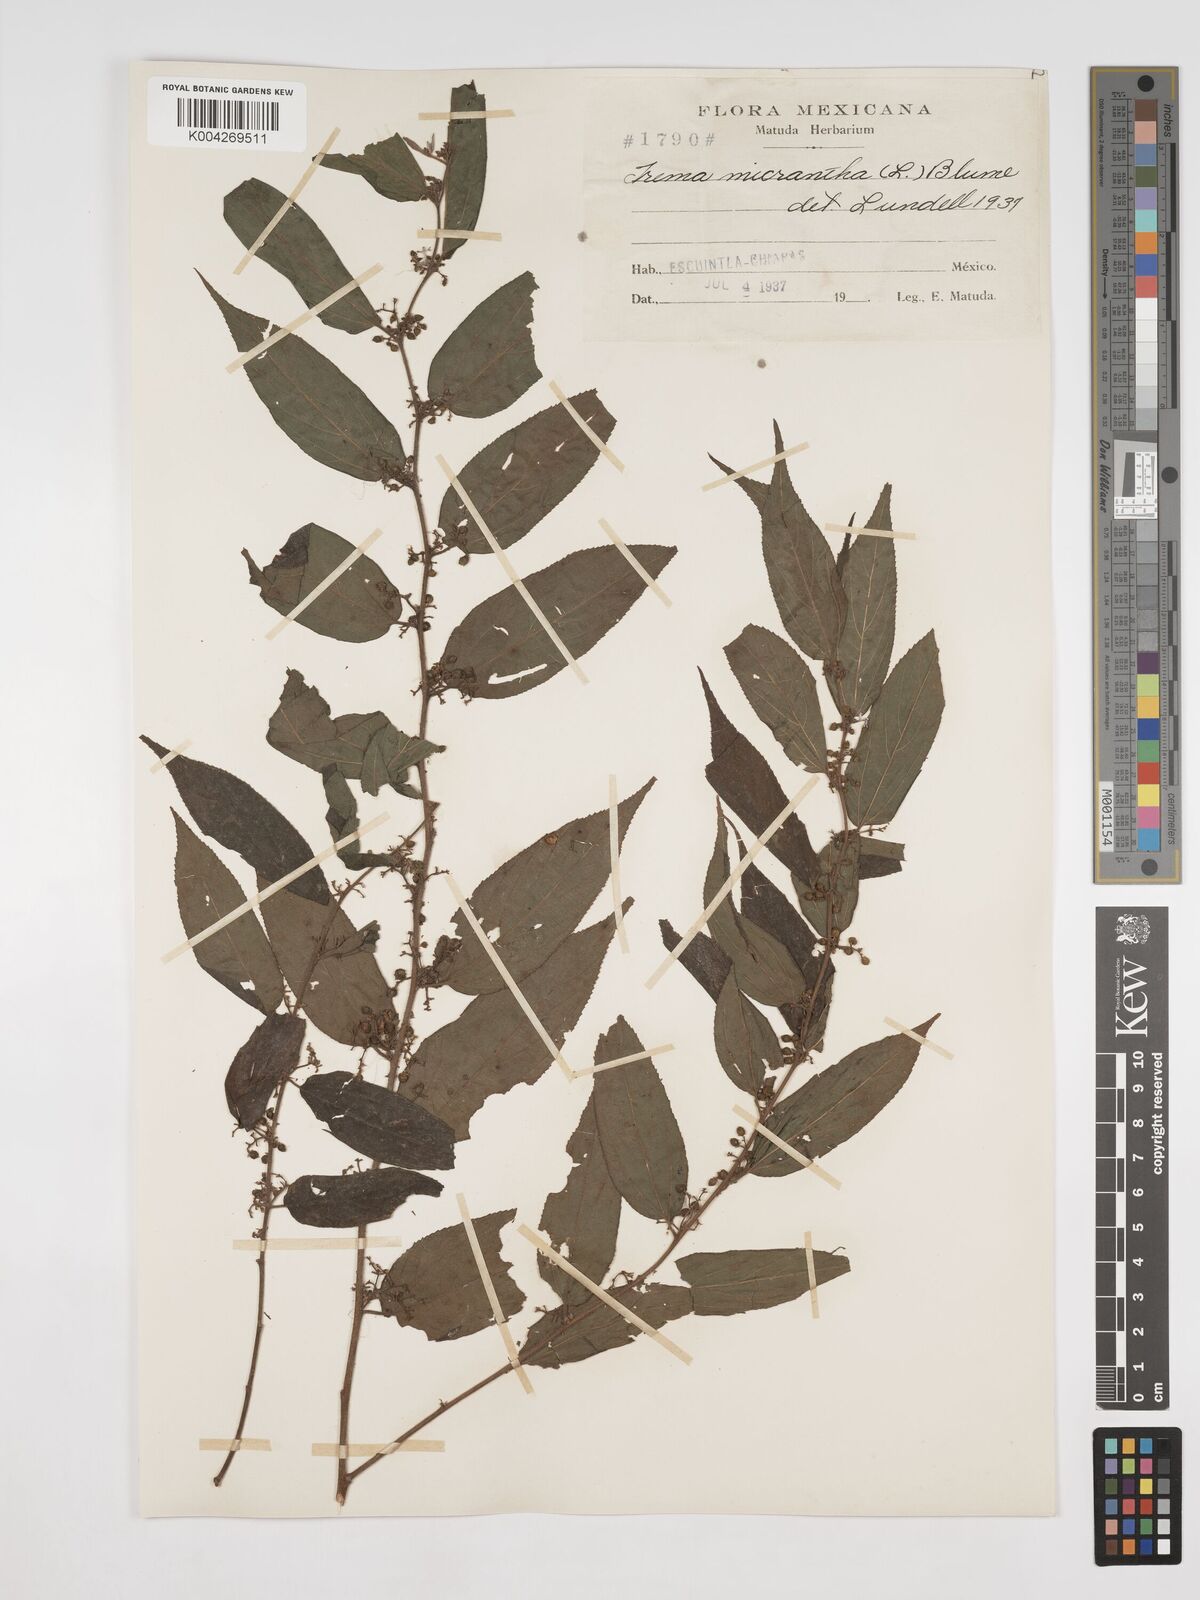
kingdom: Plantae
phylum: Tracheophyta
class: Magnoliopsida
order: Rosales
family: Cannabaceae
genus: Trema
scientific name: Trema micranthum
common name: Jamaican nettletree
